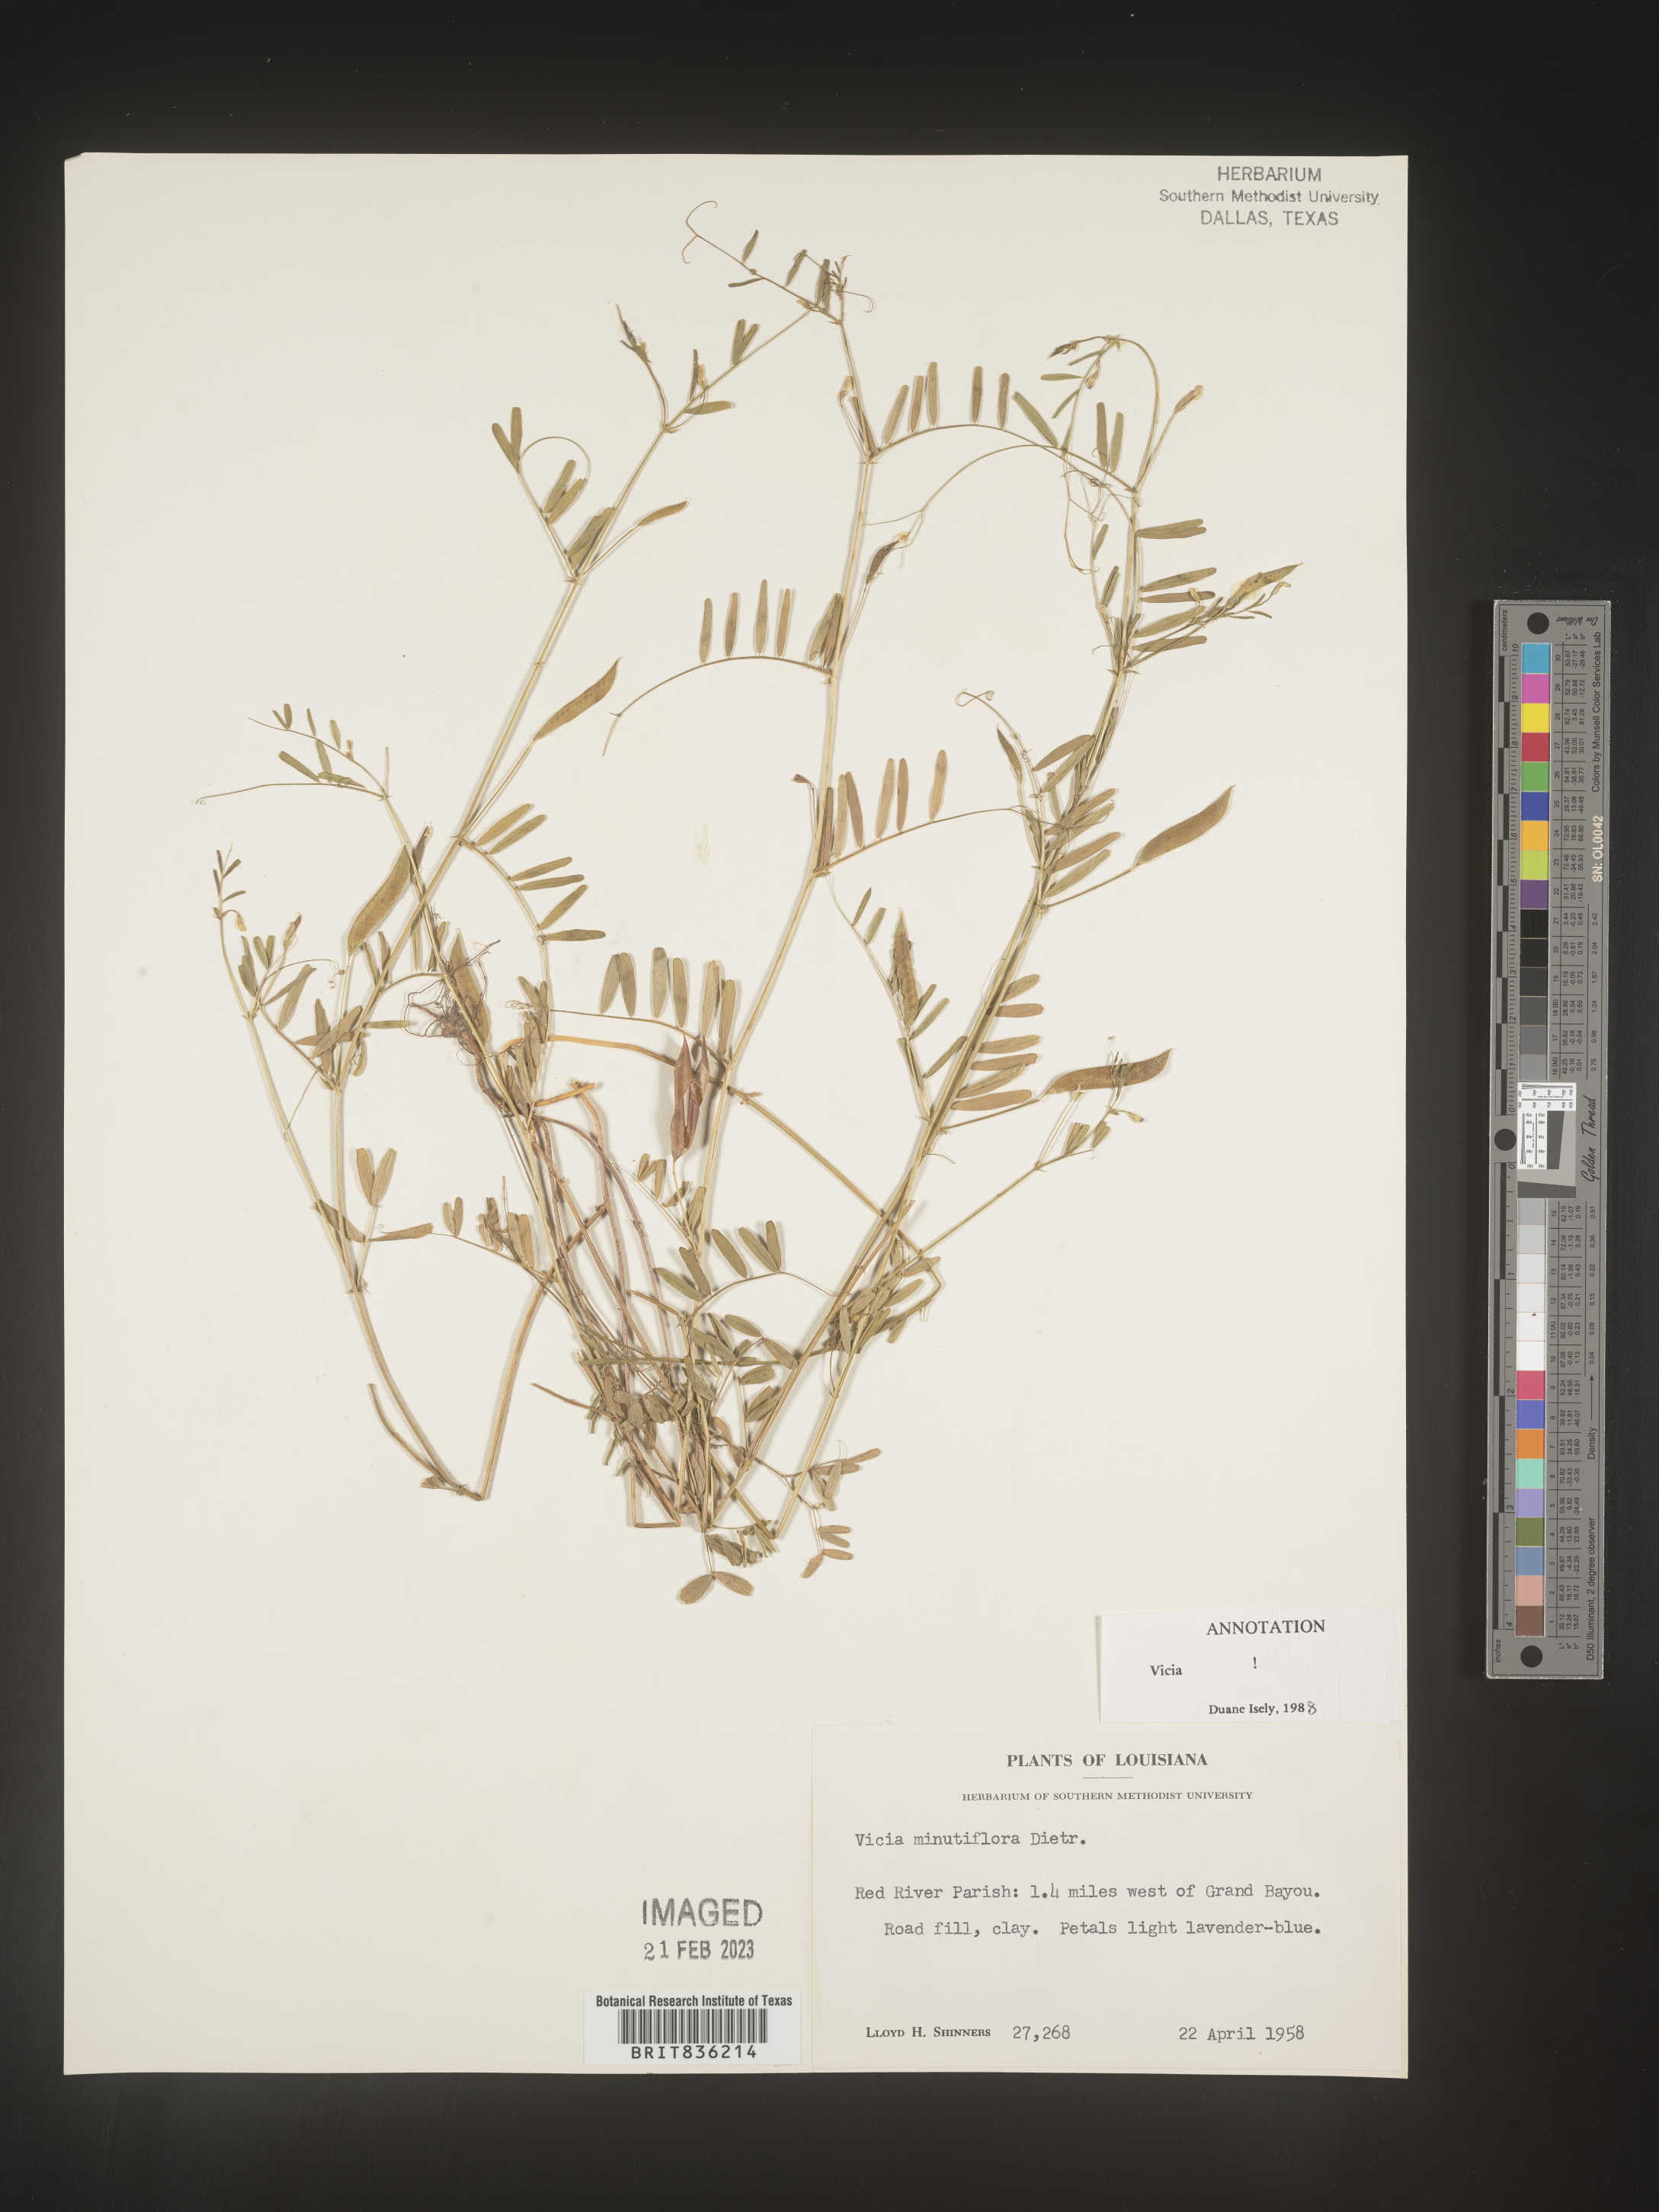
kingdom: Plantae
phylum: Tracheophyta
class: Magnoliopsida
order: Fabales
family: Fabaceae
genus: Vicia
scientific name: Vicia minutiflora
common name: Pygmy-flower vetch
